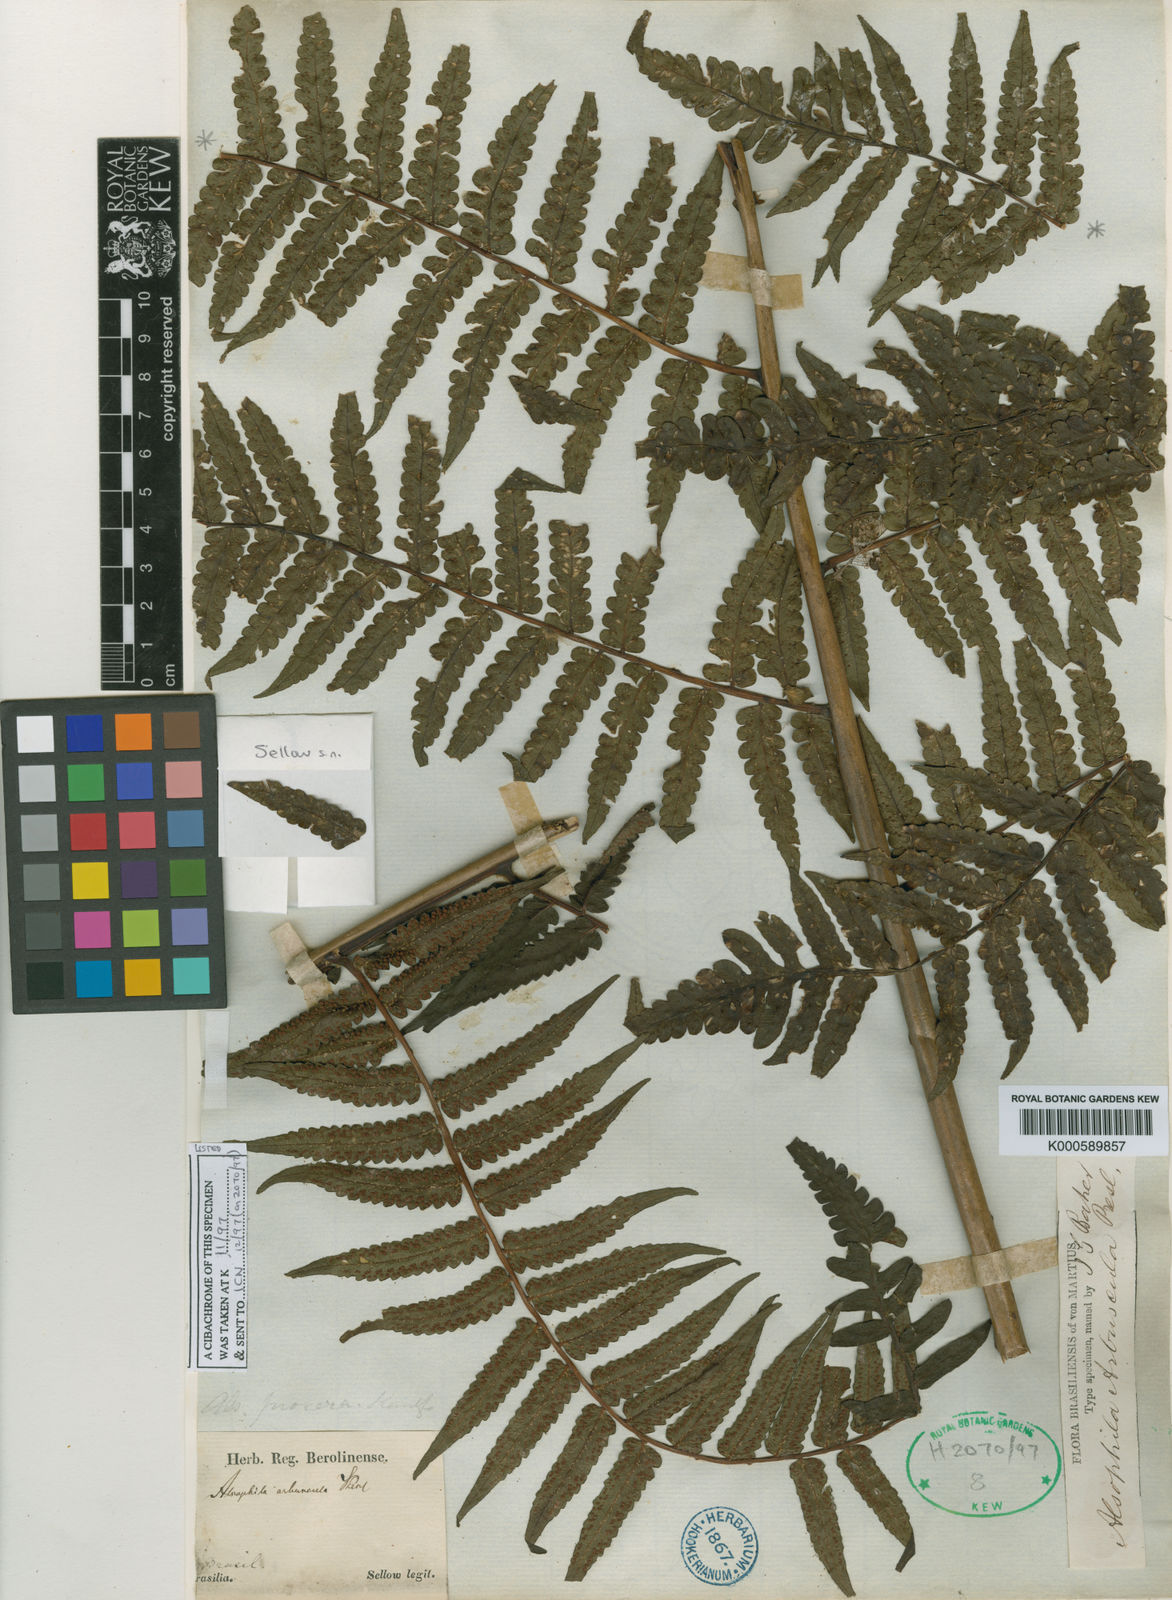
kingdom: Plantae
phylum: Tracheophyta
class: Polypodiopsida
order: Cyatheales
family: Cyatheaceae
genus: Cyathea
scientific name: Cyathea
